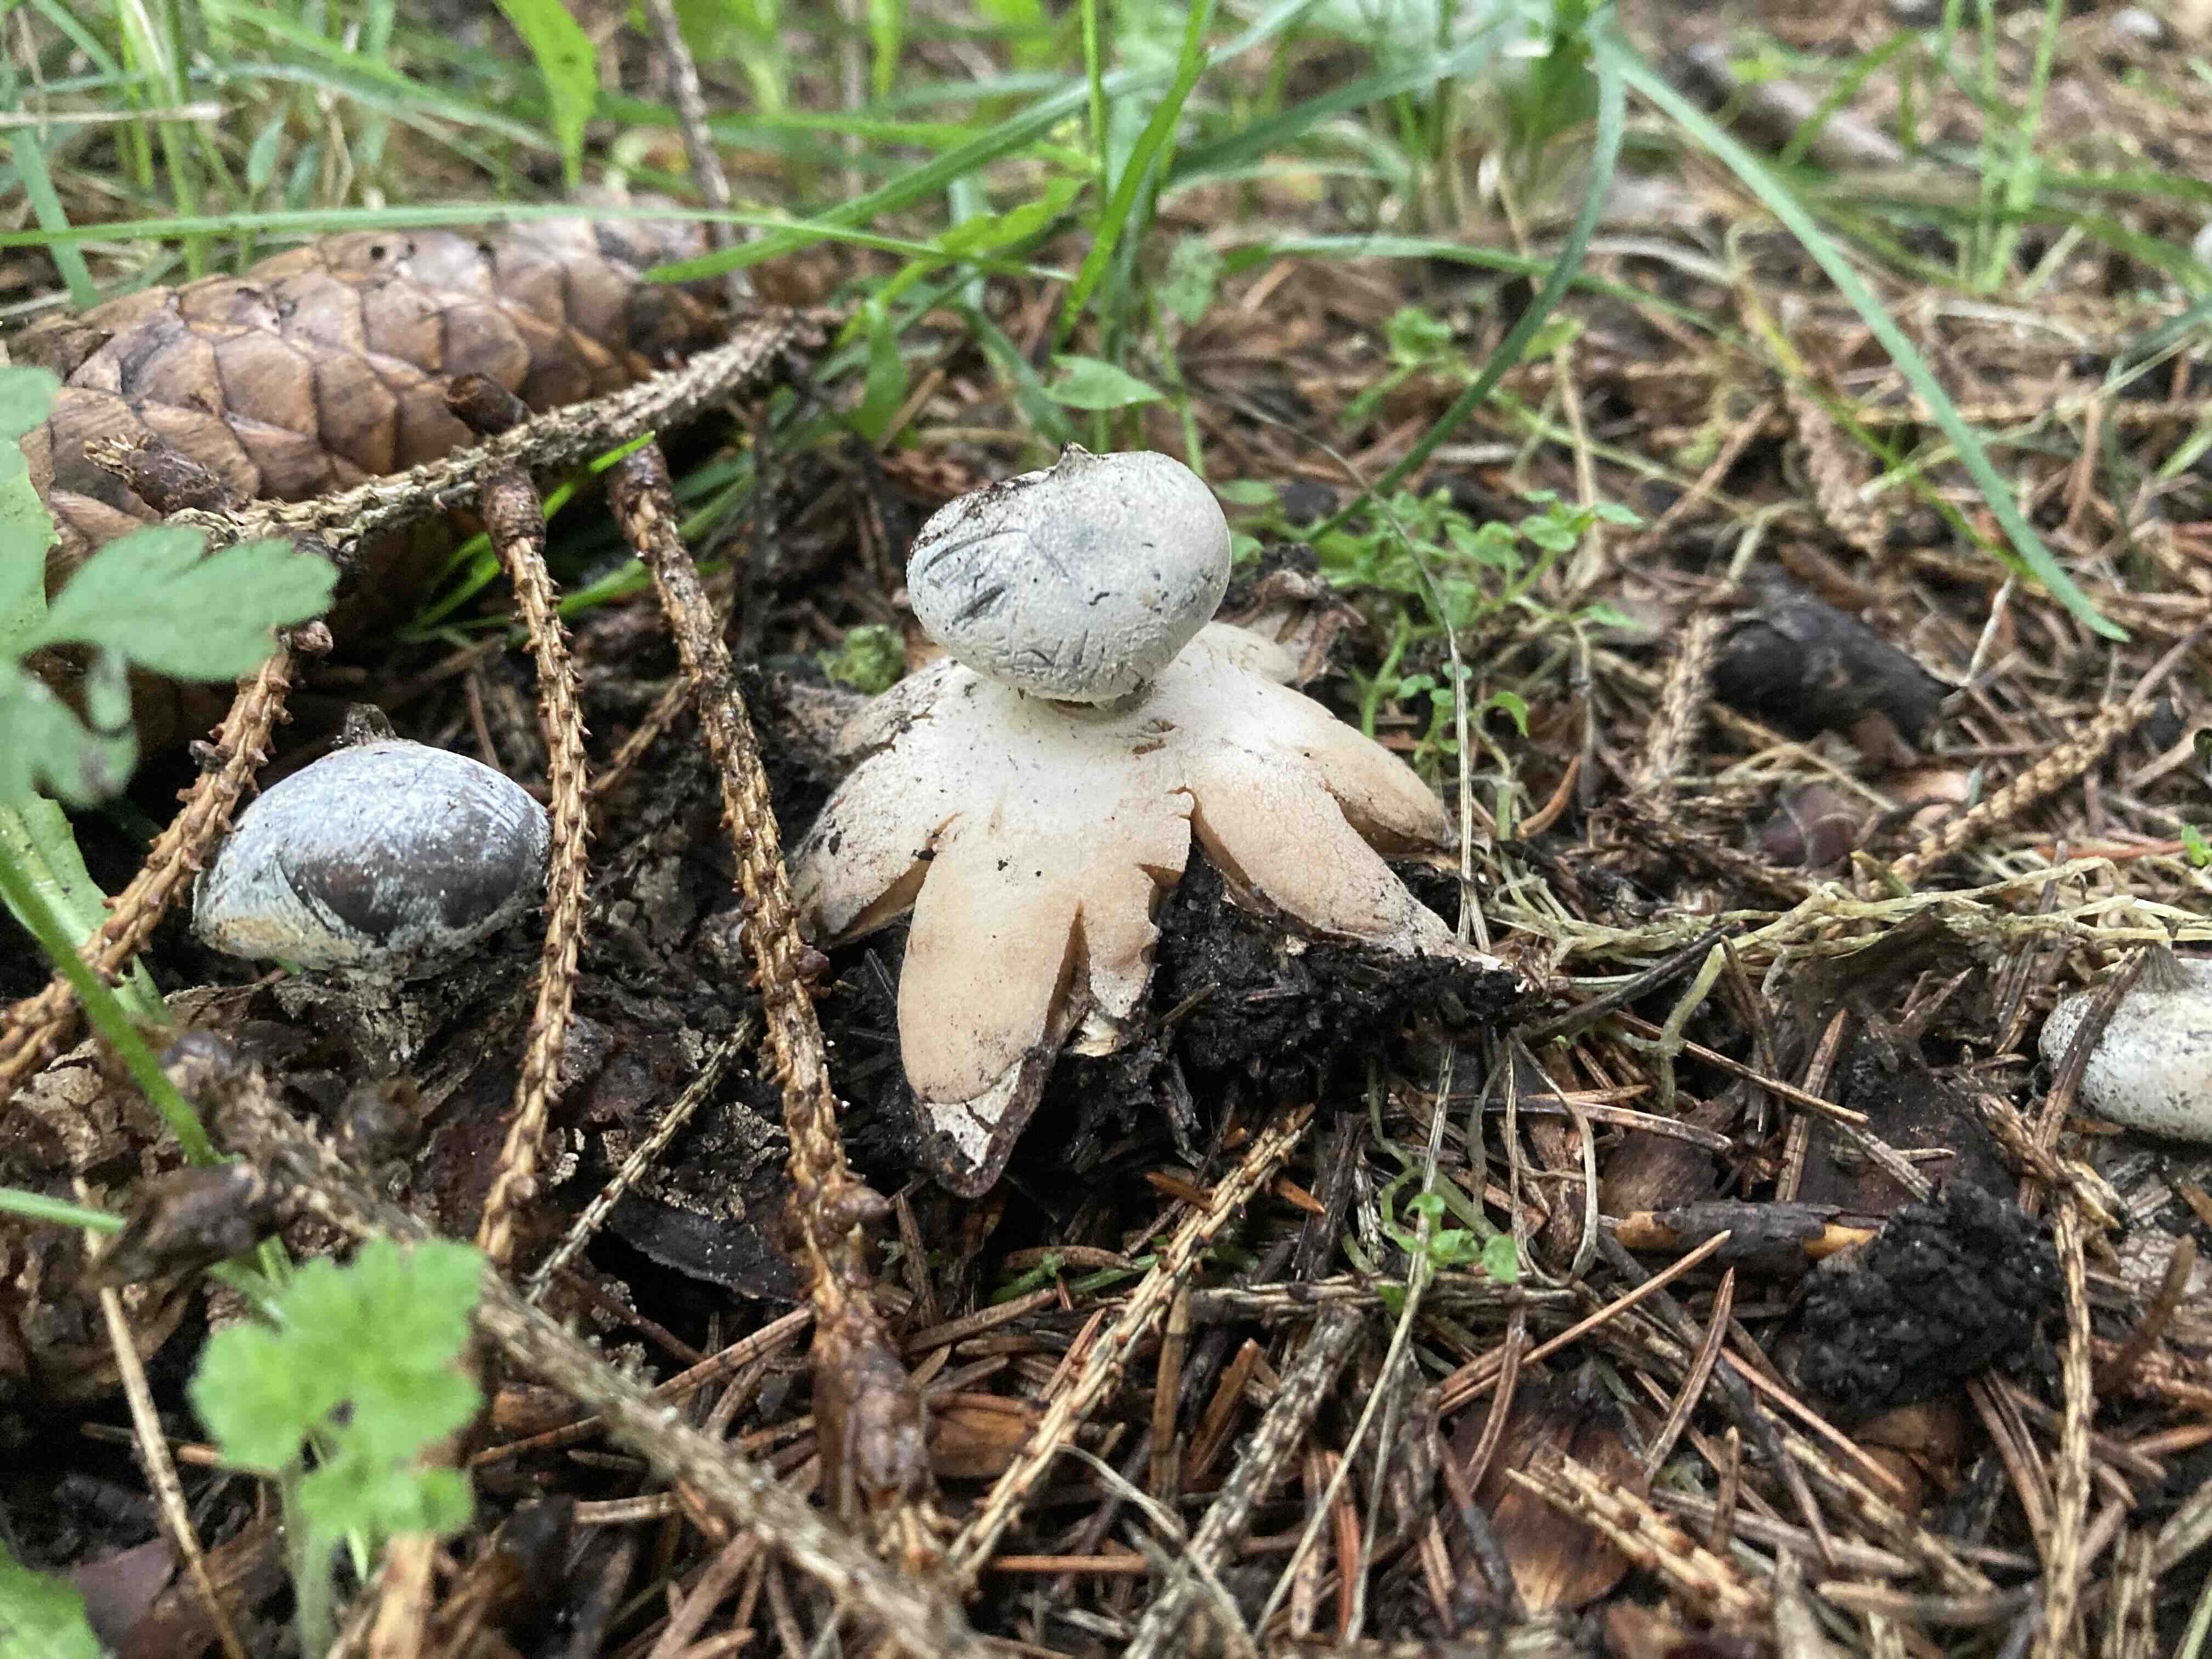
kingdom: Fungi
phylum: Basidiomycota
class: Agaricomycetes
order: Geastrales
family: Geastraceae
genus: Geastrum
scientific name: Geastrum
